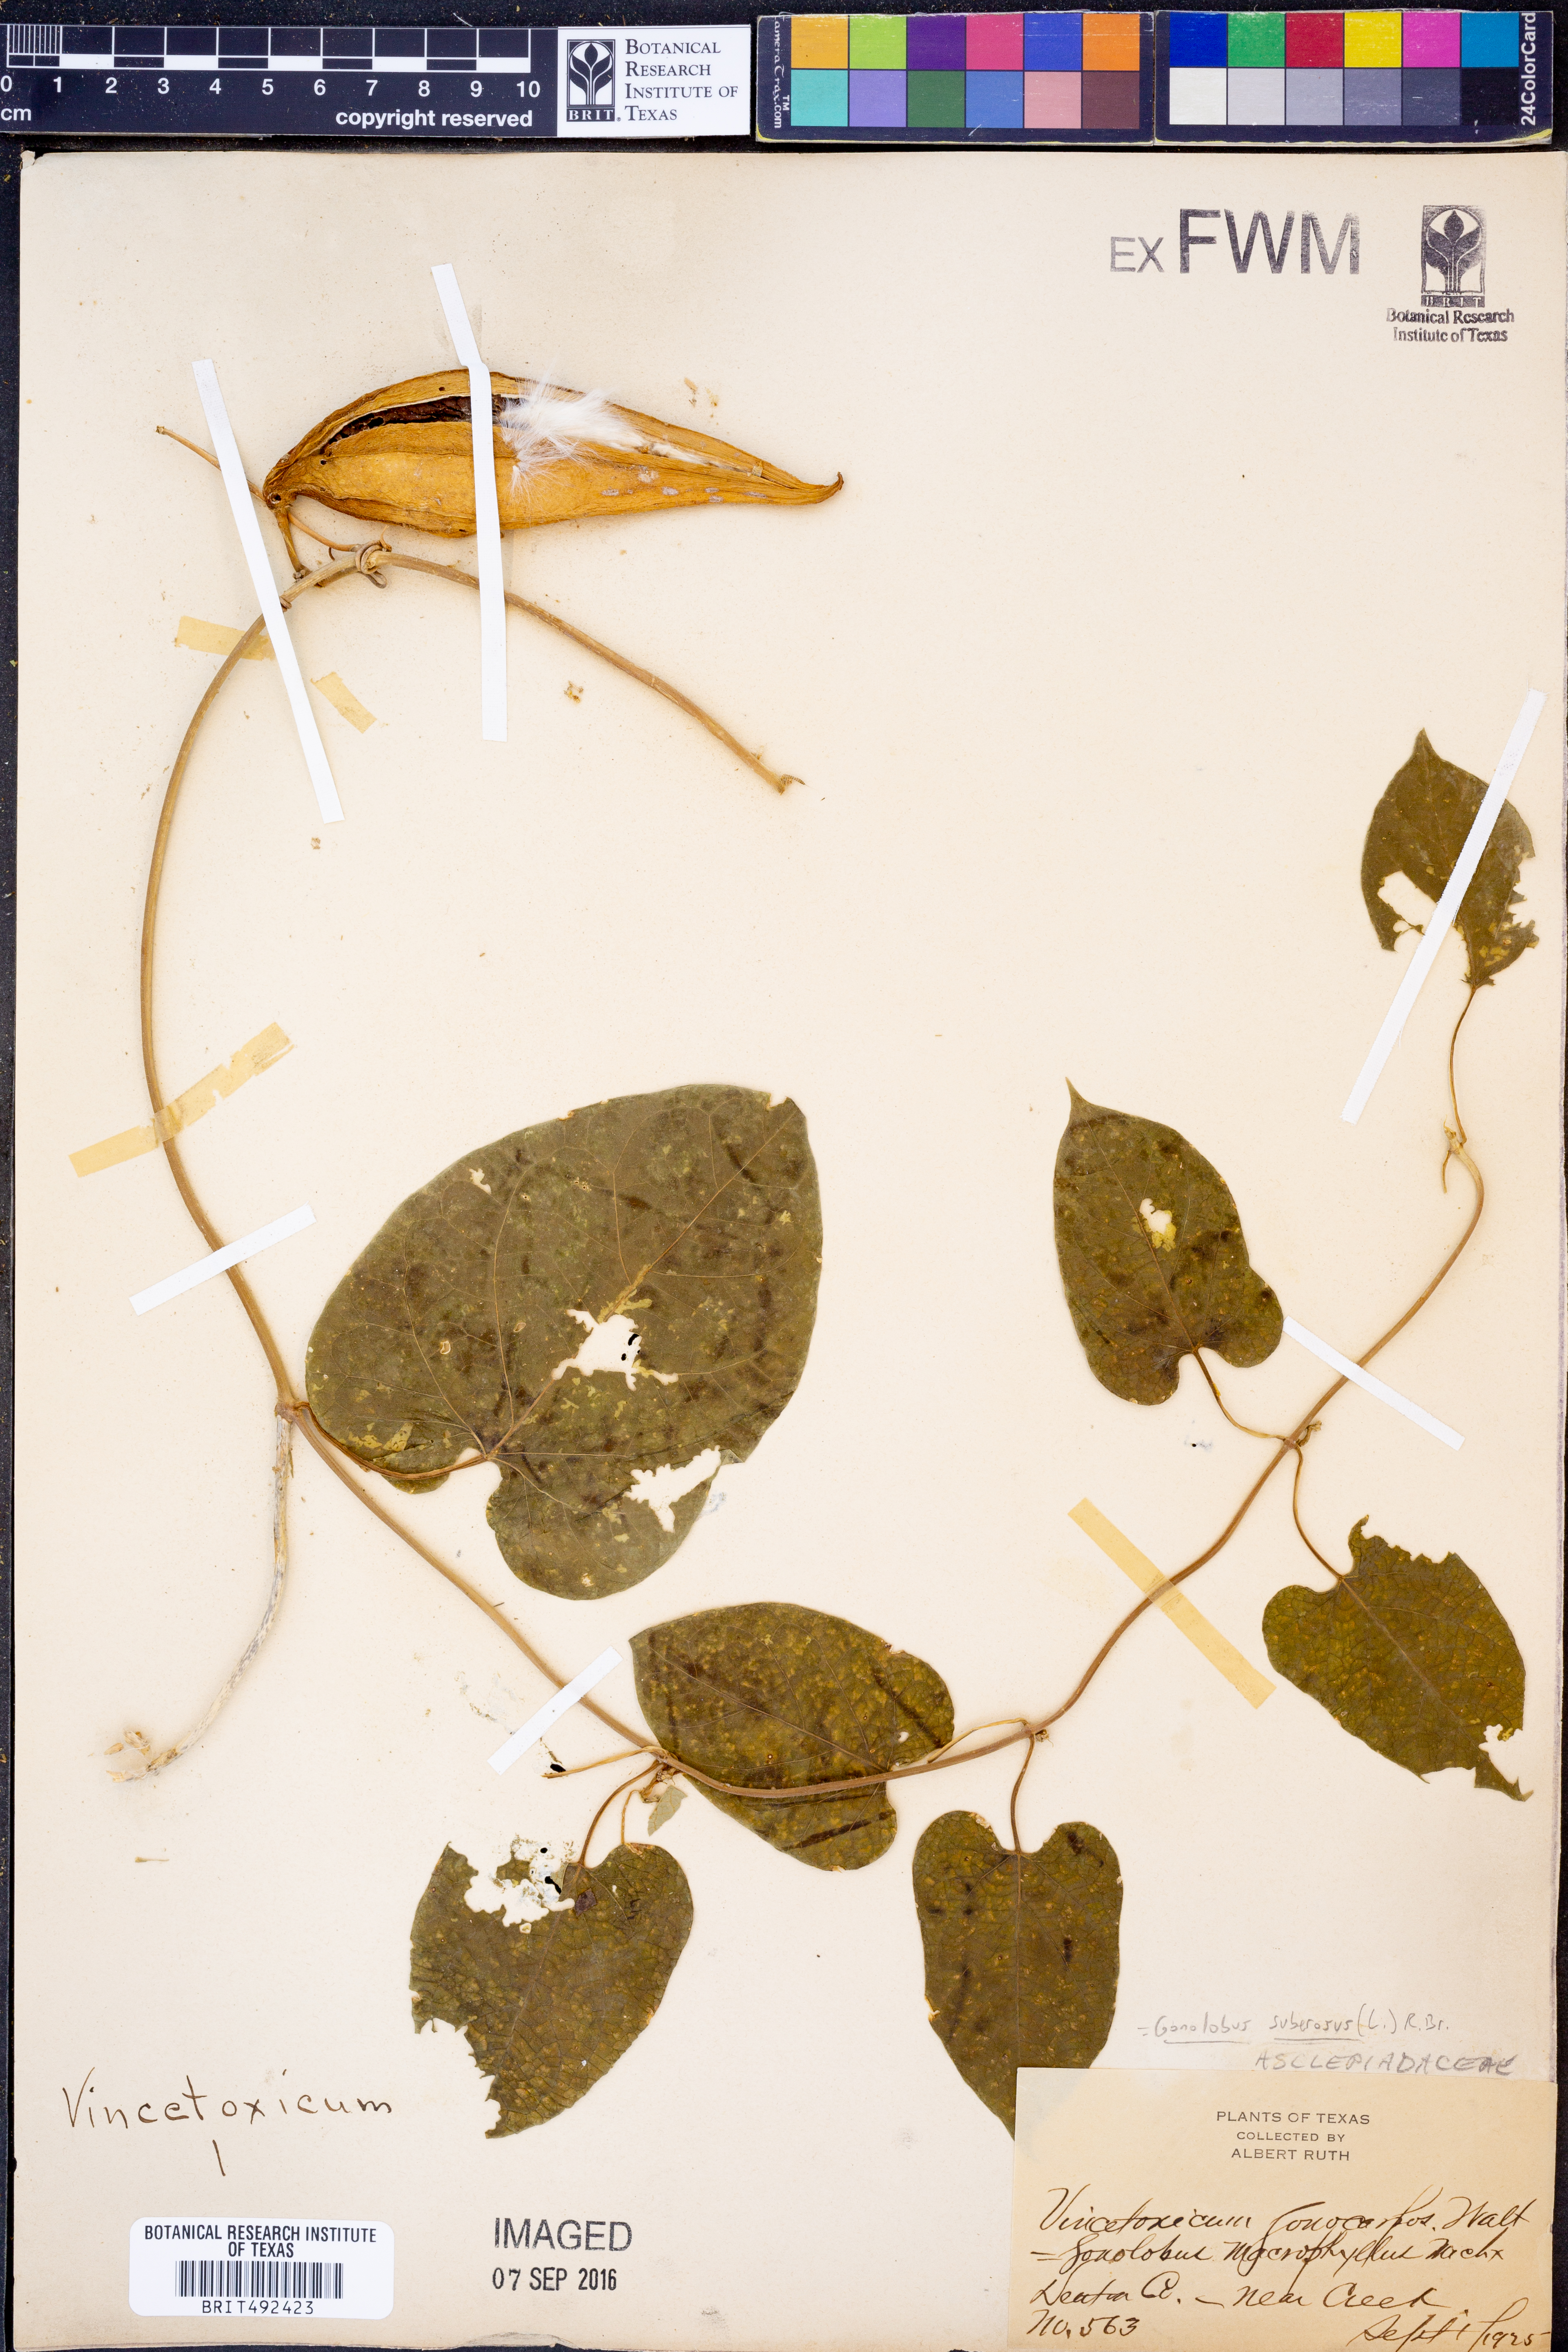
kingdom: Plantae
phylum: Tracheophyta
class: Magnoliopsida
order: Gentianales
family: Apocynaceae
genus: Gonolobus
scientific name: Gonolobus suberosus
